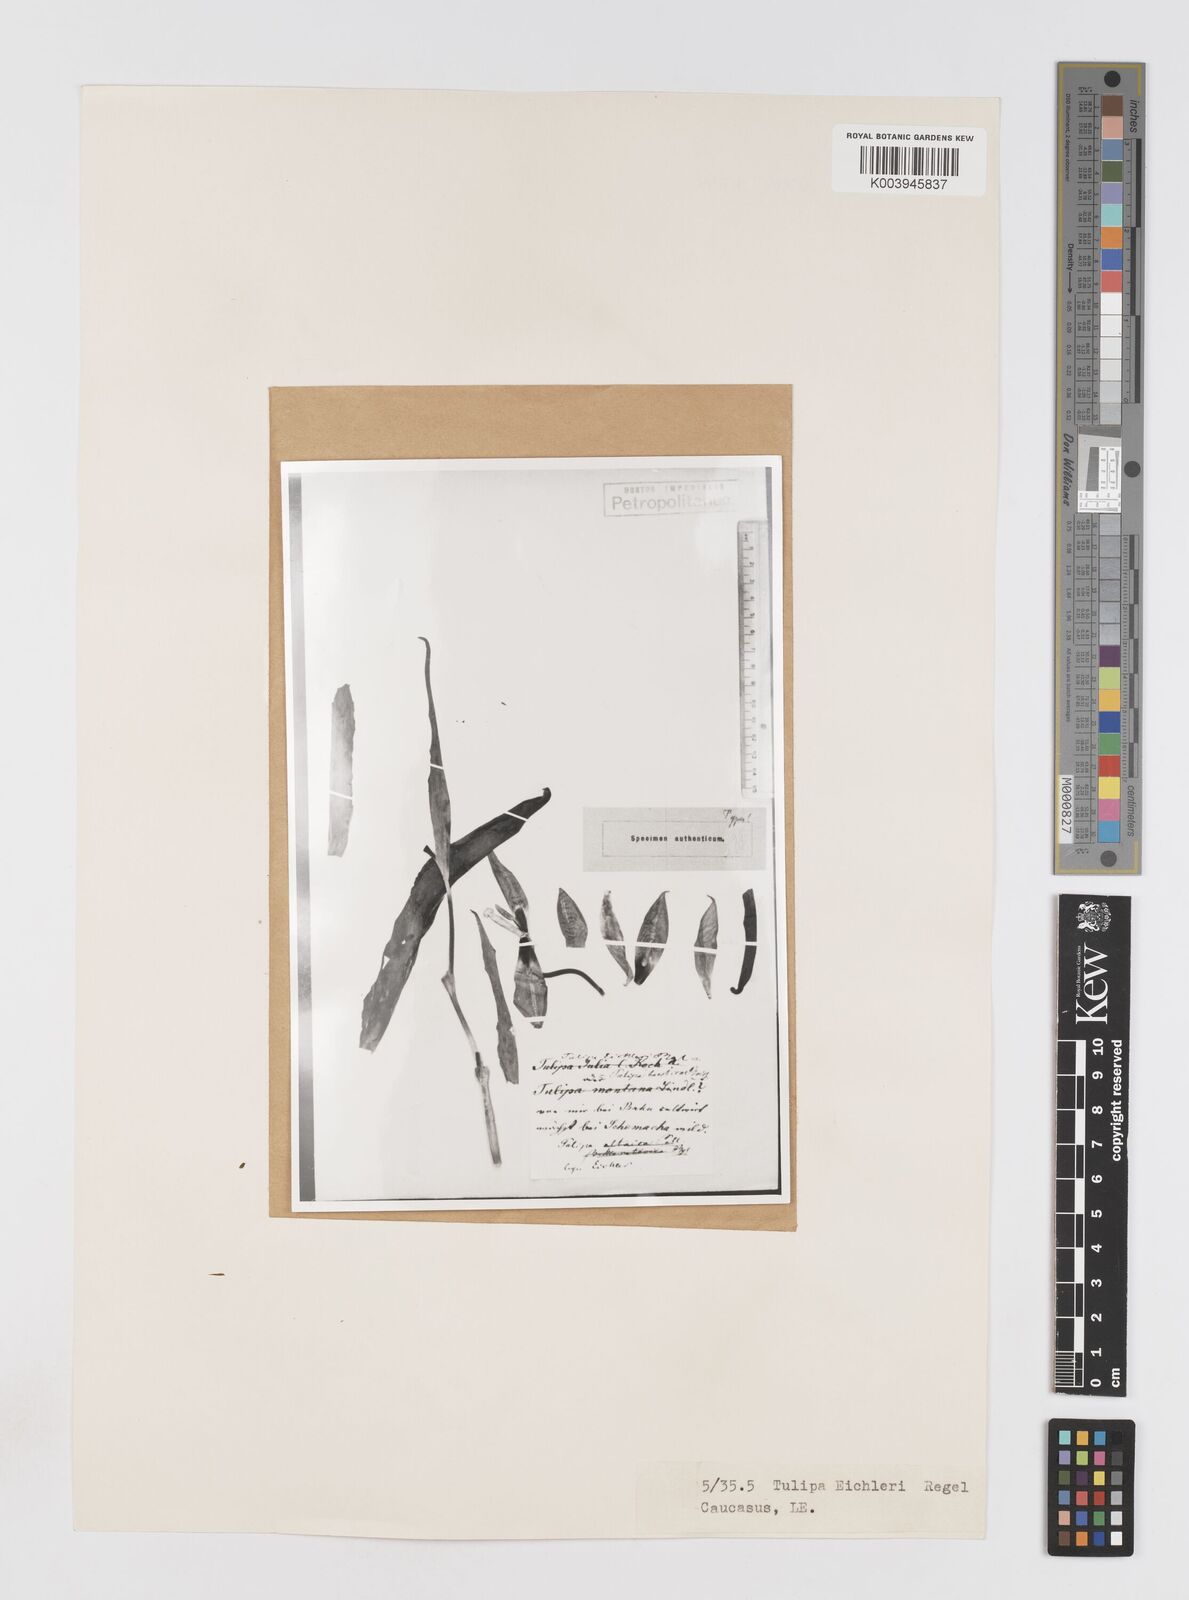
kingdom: Plantae
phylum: Tracheophyta
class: Liliopsida
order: Liliales
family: Liliaceae
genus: Tulipa
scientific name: Tulipa undulatifolia
